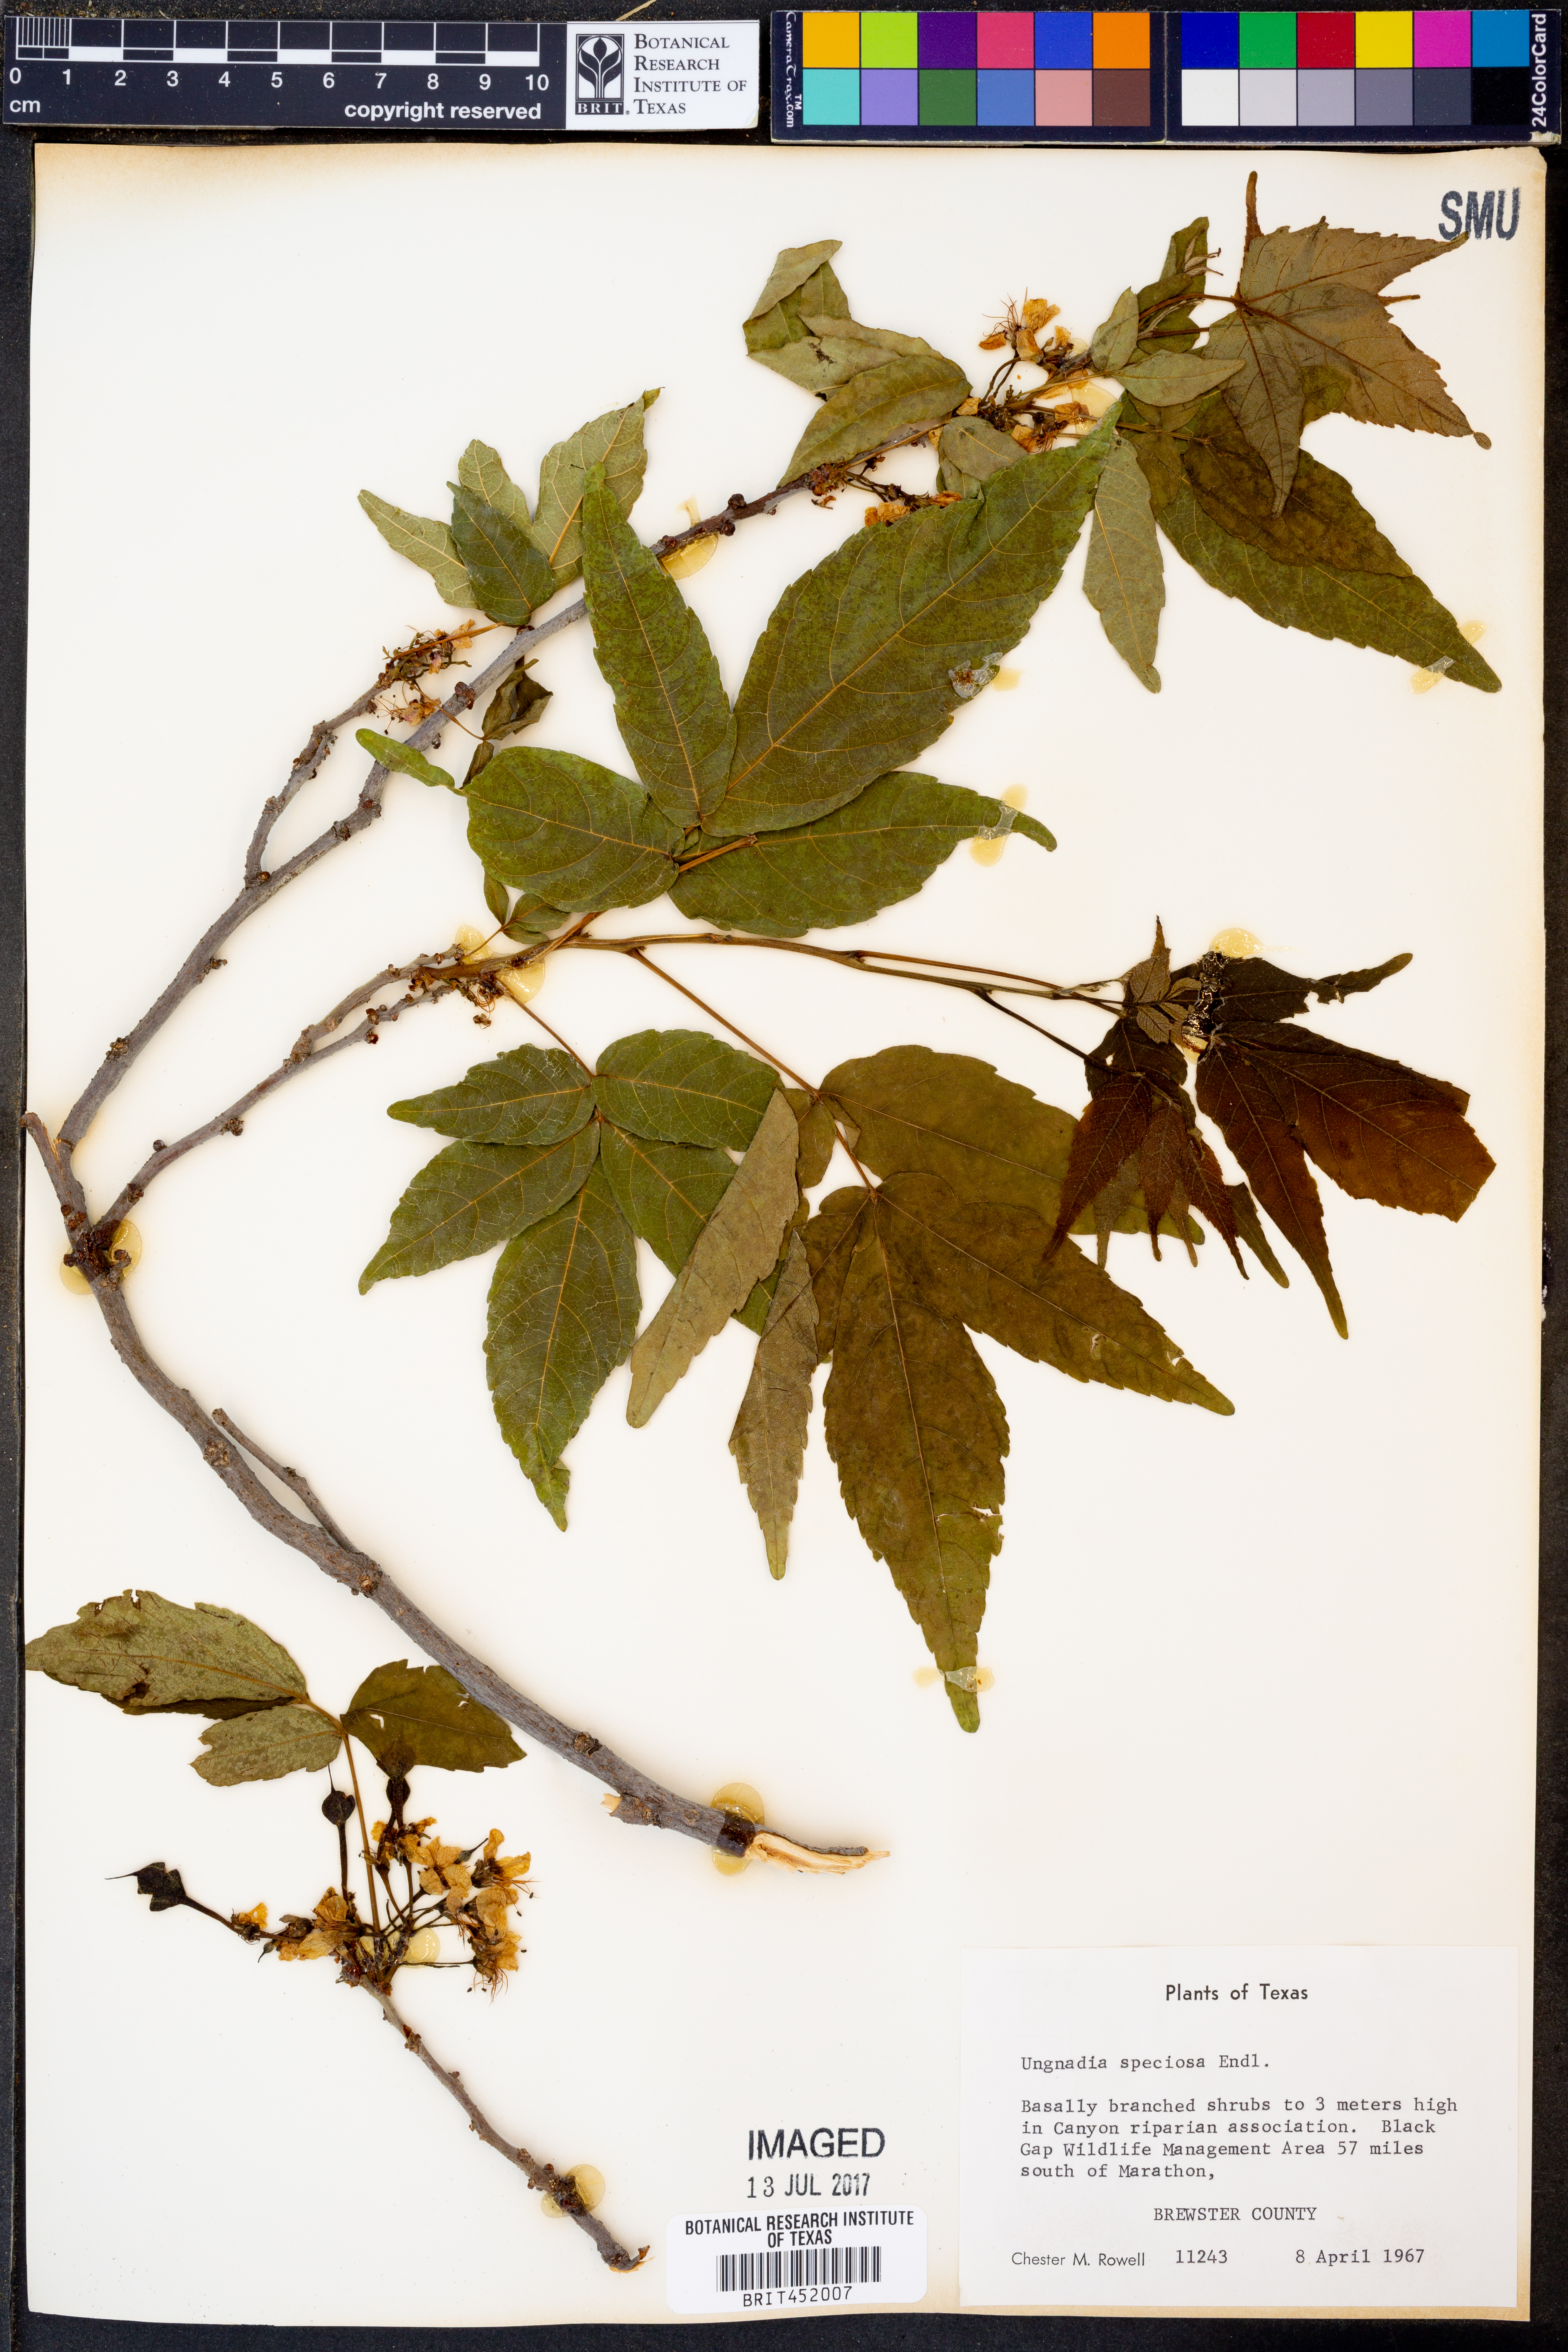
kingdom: Plantae
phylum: Tracheophyta
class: Magnoliopsida
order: Sapindales
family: Sapindaceae
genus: Ungnadia
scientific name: Ungnadia speciosa
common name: Texas-buckeye
